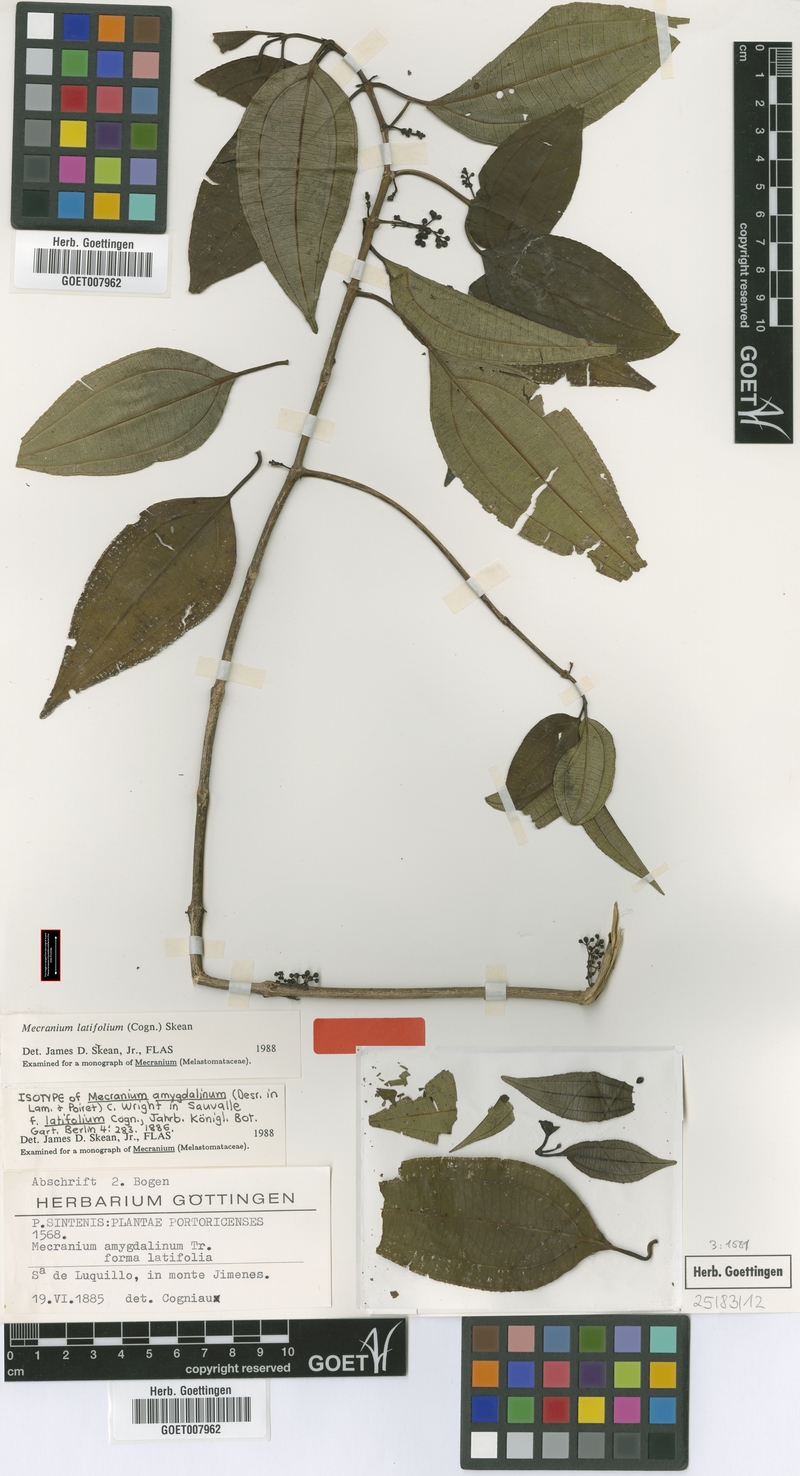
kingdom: Plantae
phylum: Tracheophyta
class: Magnoliopsida
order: Myrtales
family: Melastomataceae
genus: Miconia
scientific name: Miconia borinquensis
